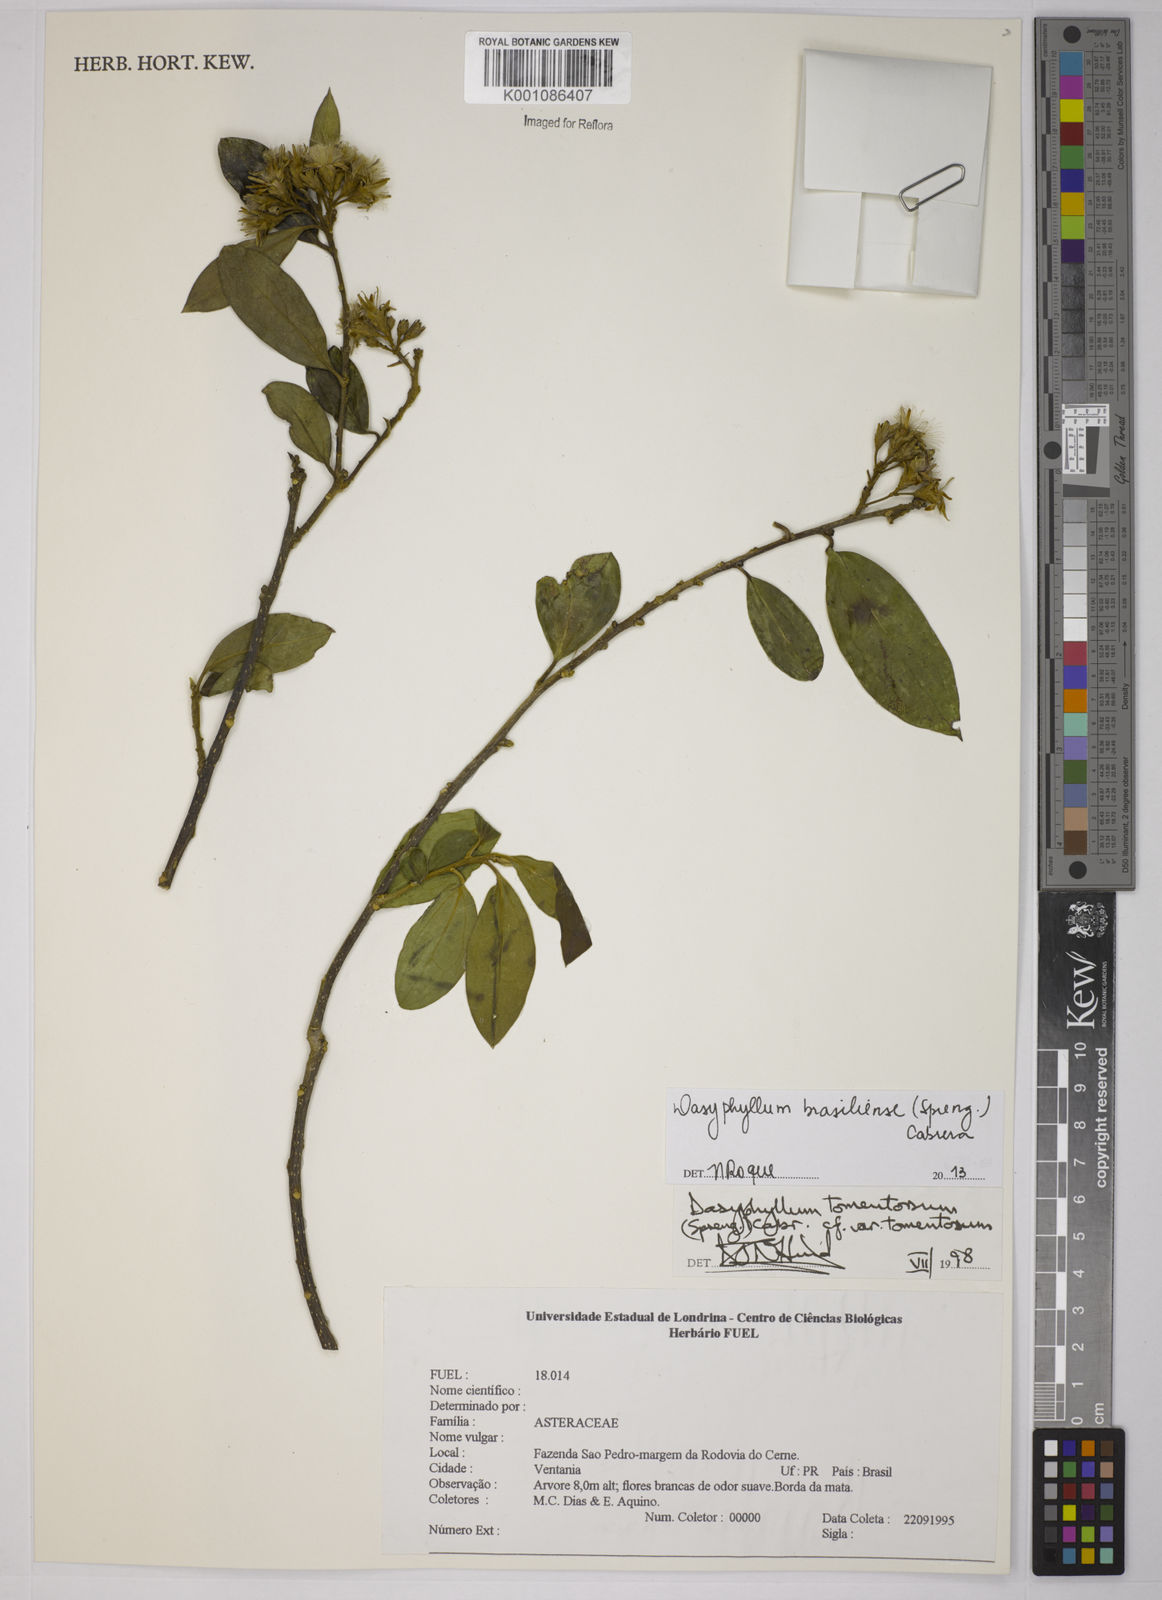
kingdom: Plantae
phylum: Tracheophyta
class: Magnoliopsida
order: Asterales
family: Asteraceae
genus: Dasyphyllum
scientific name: Dasyphyllum brasiliense
